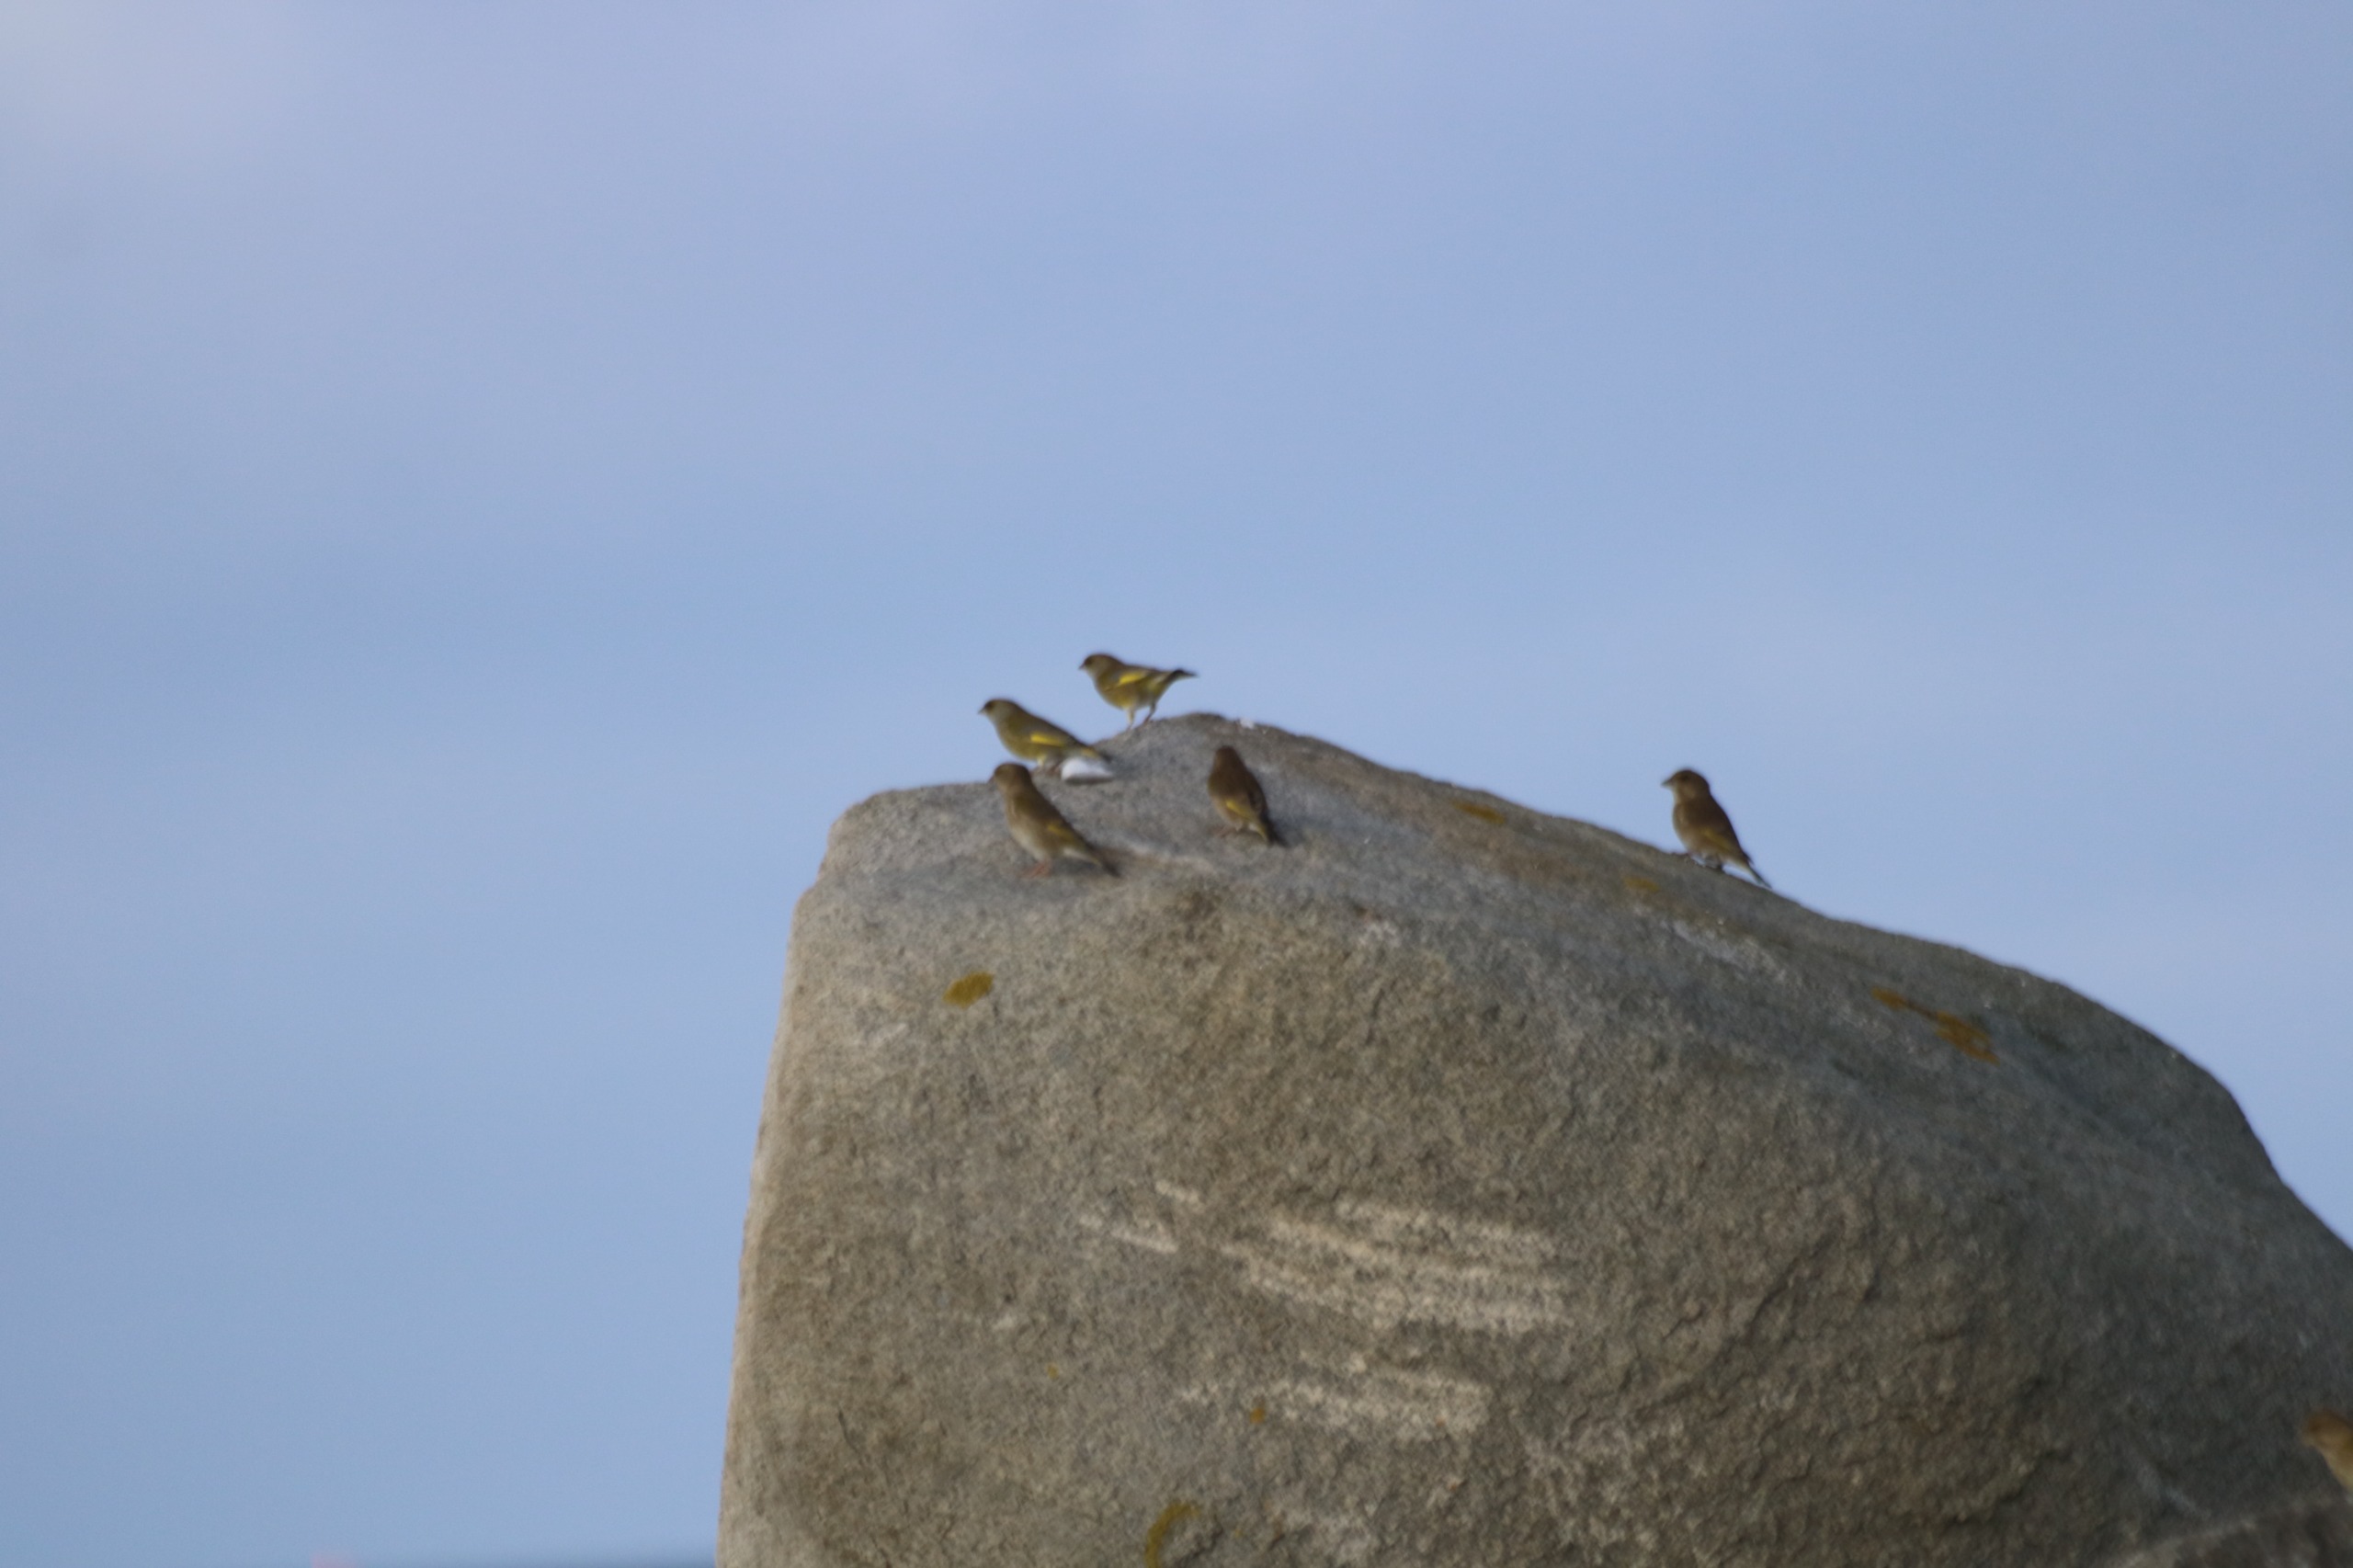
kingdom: Plantae
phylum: Tracheophyta
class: Liliopsida
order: Poales
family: Poaceae
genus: Chloris
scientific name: Chloris chloris
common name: Grønirisk
